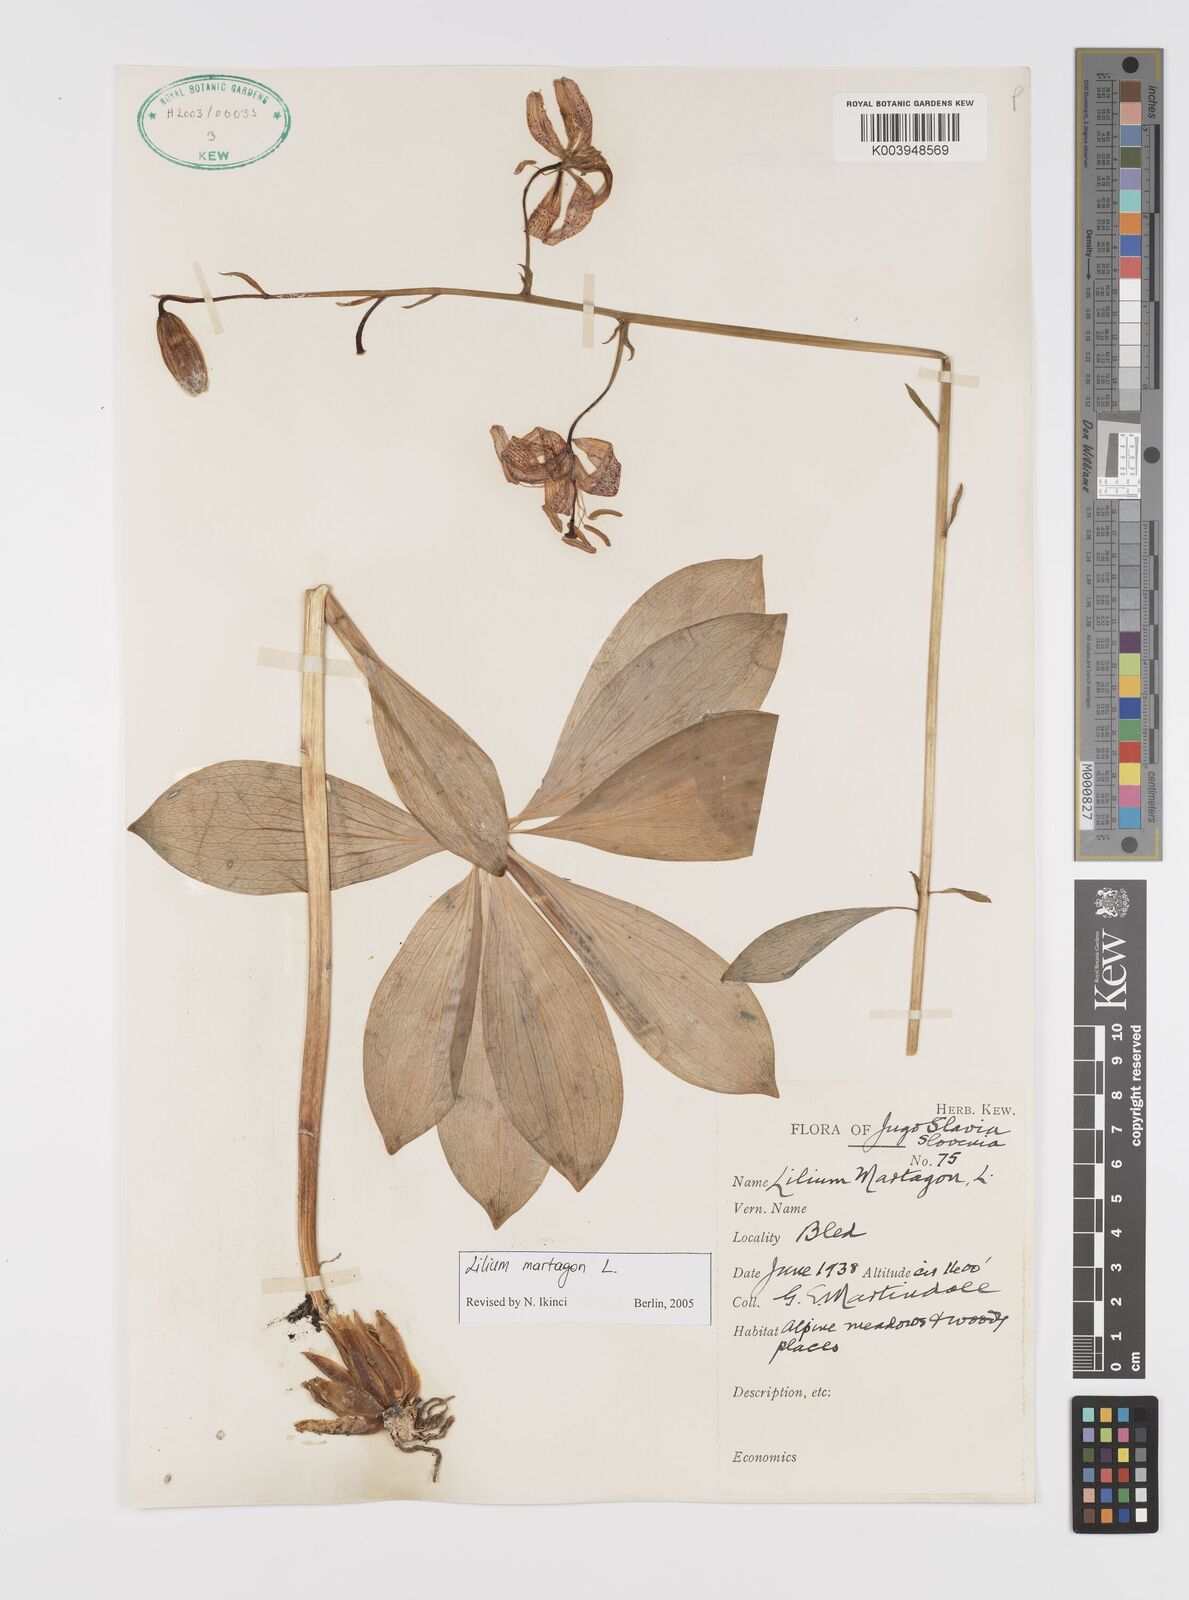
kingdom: Plantae
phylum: Tracheophyta
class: Liliopsida
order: Liliales
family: Liliaceae
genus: Lilium
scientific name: Lilium martagon
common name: Martagon lily
